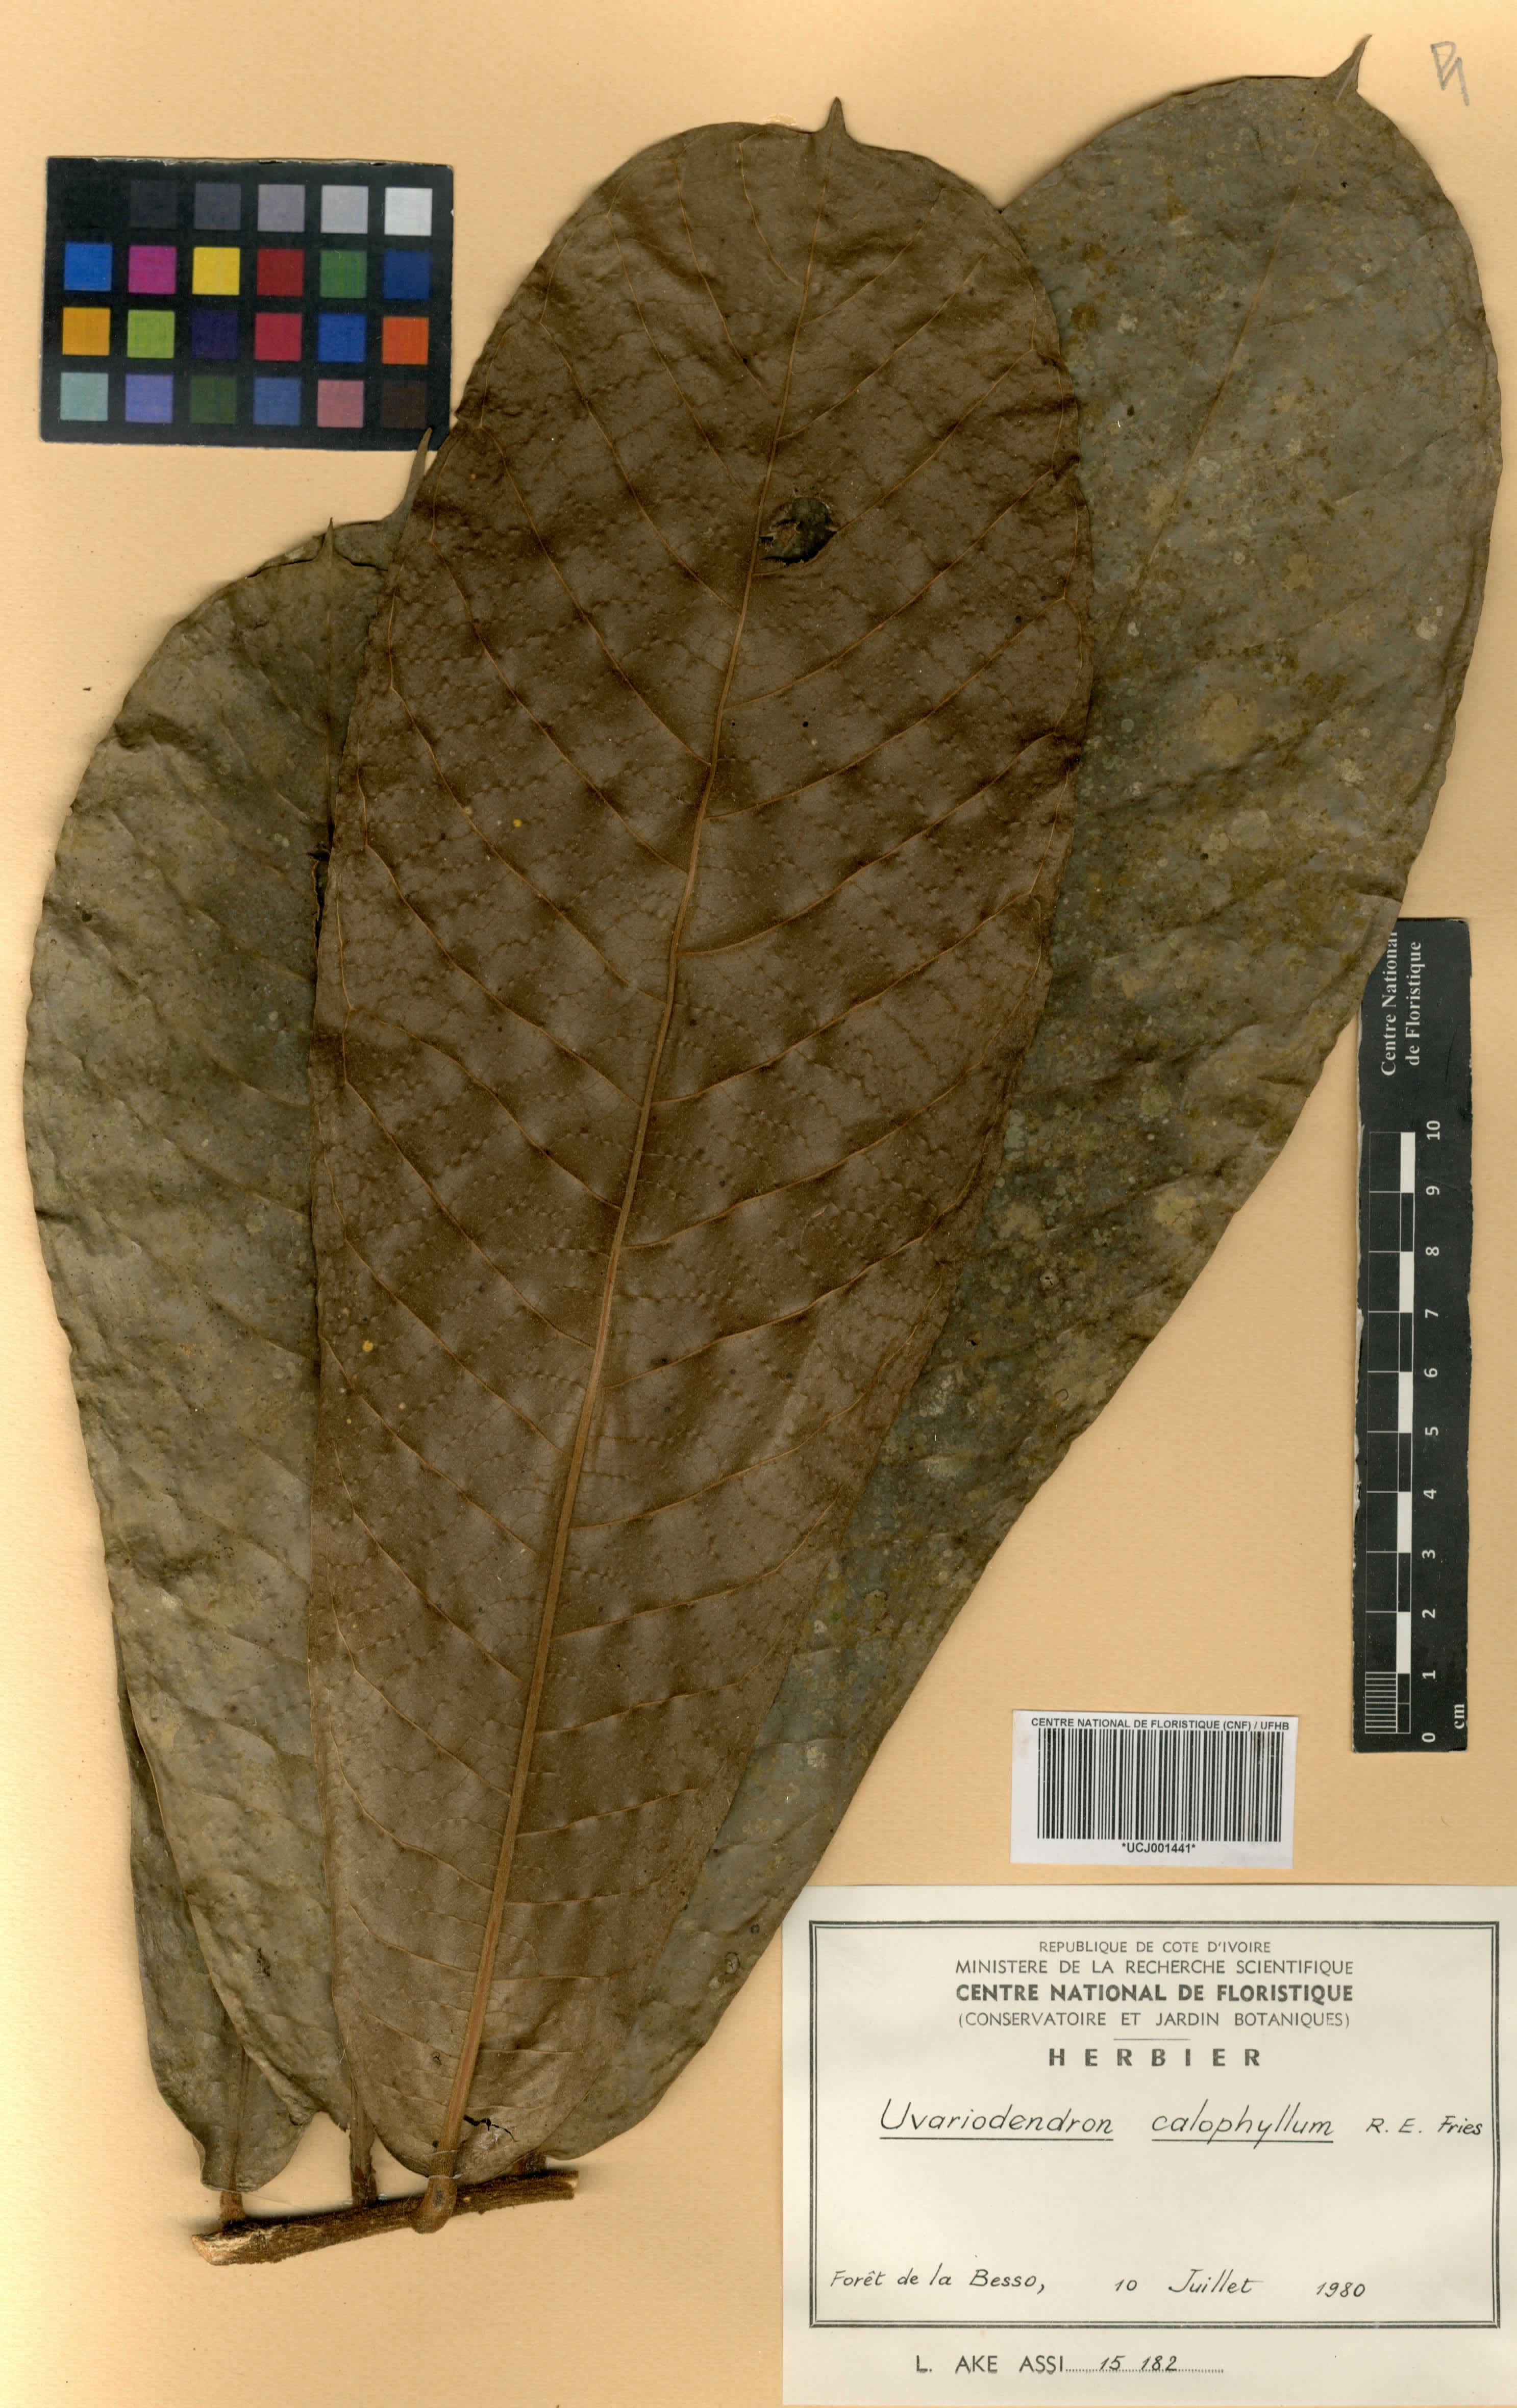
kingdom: Plantae
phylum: Tracheophyta
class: Magnoliopsida
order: Magnoliales
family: Annonaceae
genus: Uvariodendron
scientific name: Uvariodendron calophyllum
